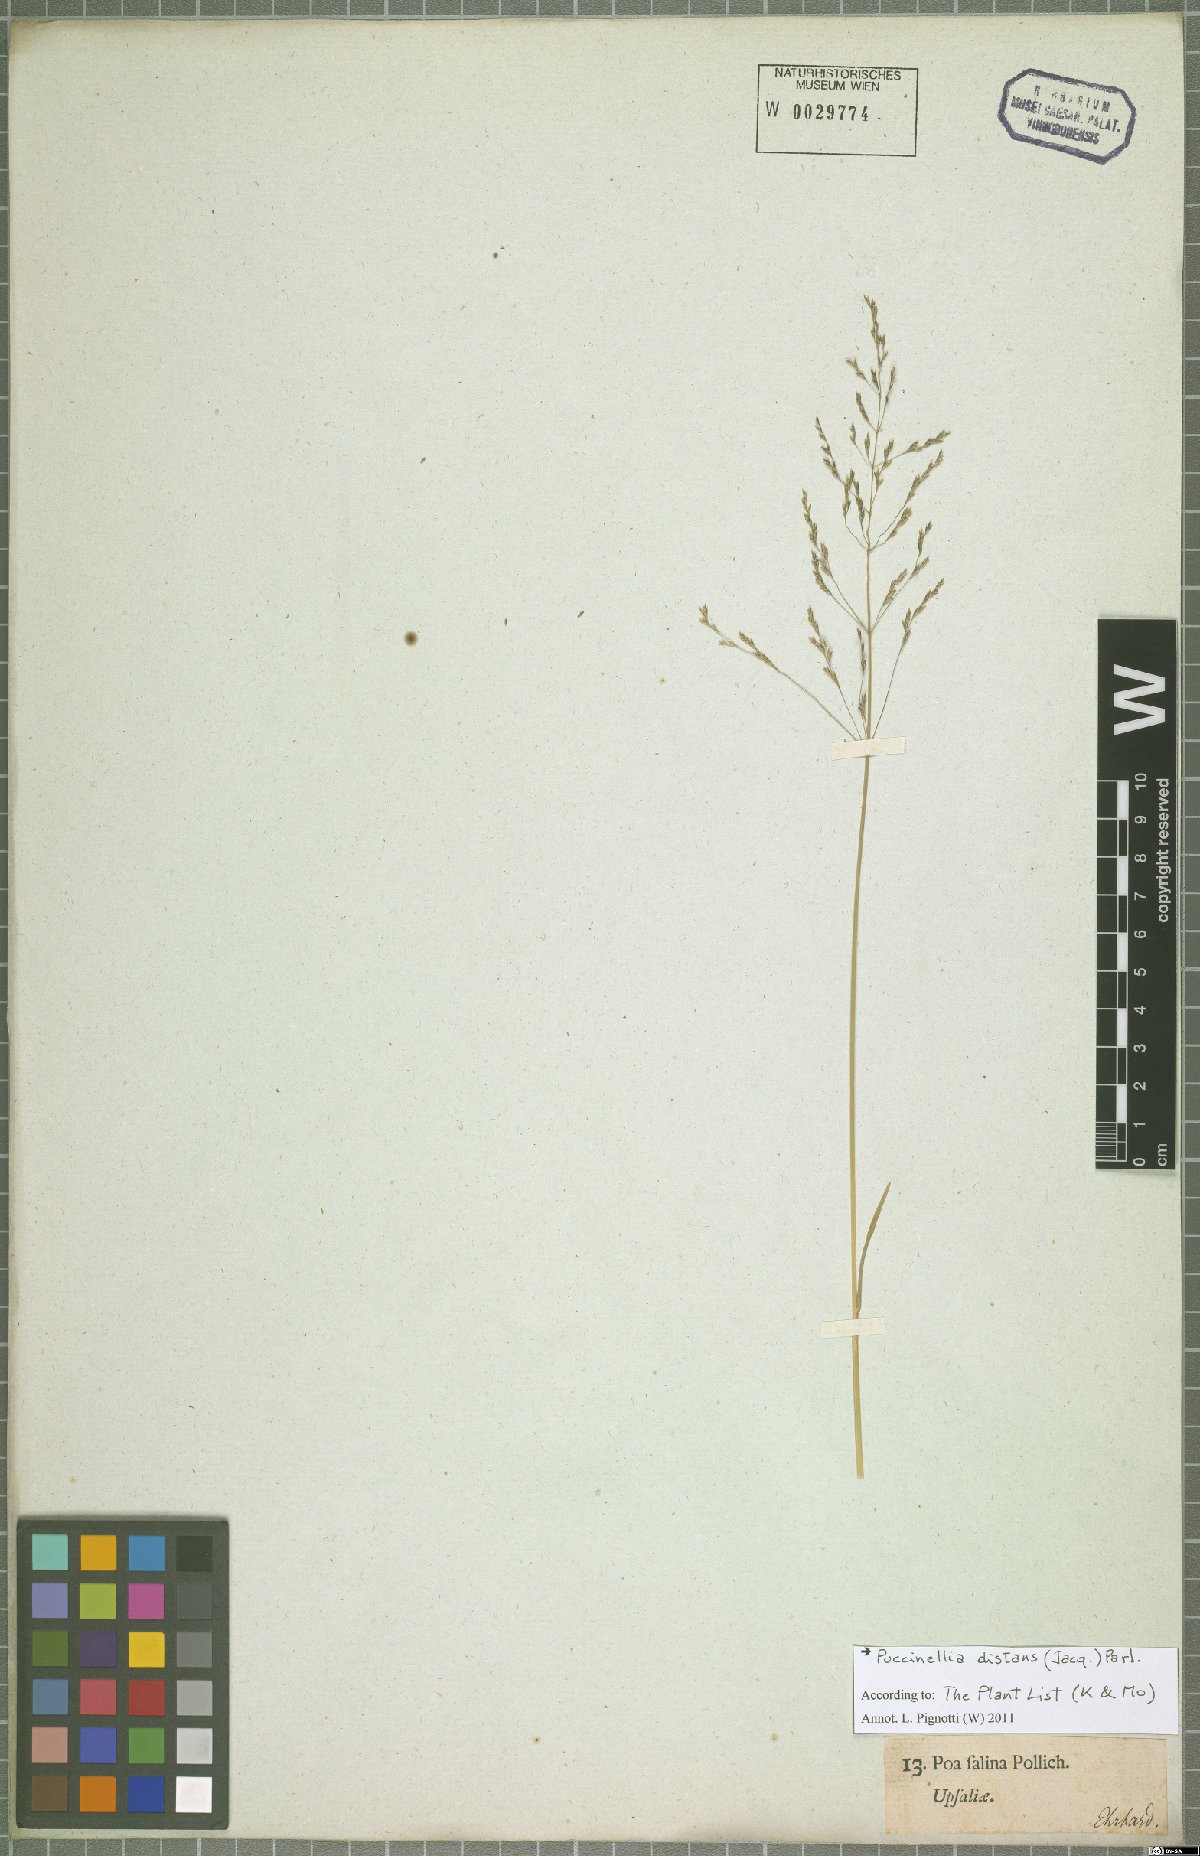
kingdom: Plantae
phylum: Tracheophyta
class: Liliopsida
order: Poales
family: Poaceae
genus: Puccinellia
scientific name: Puccinellia distans
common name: Weeping alkaligrass
